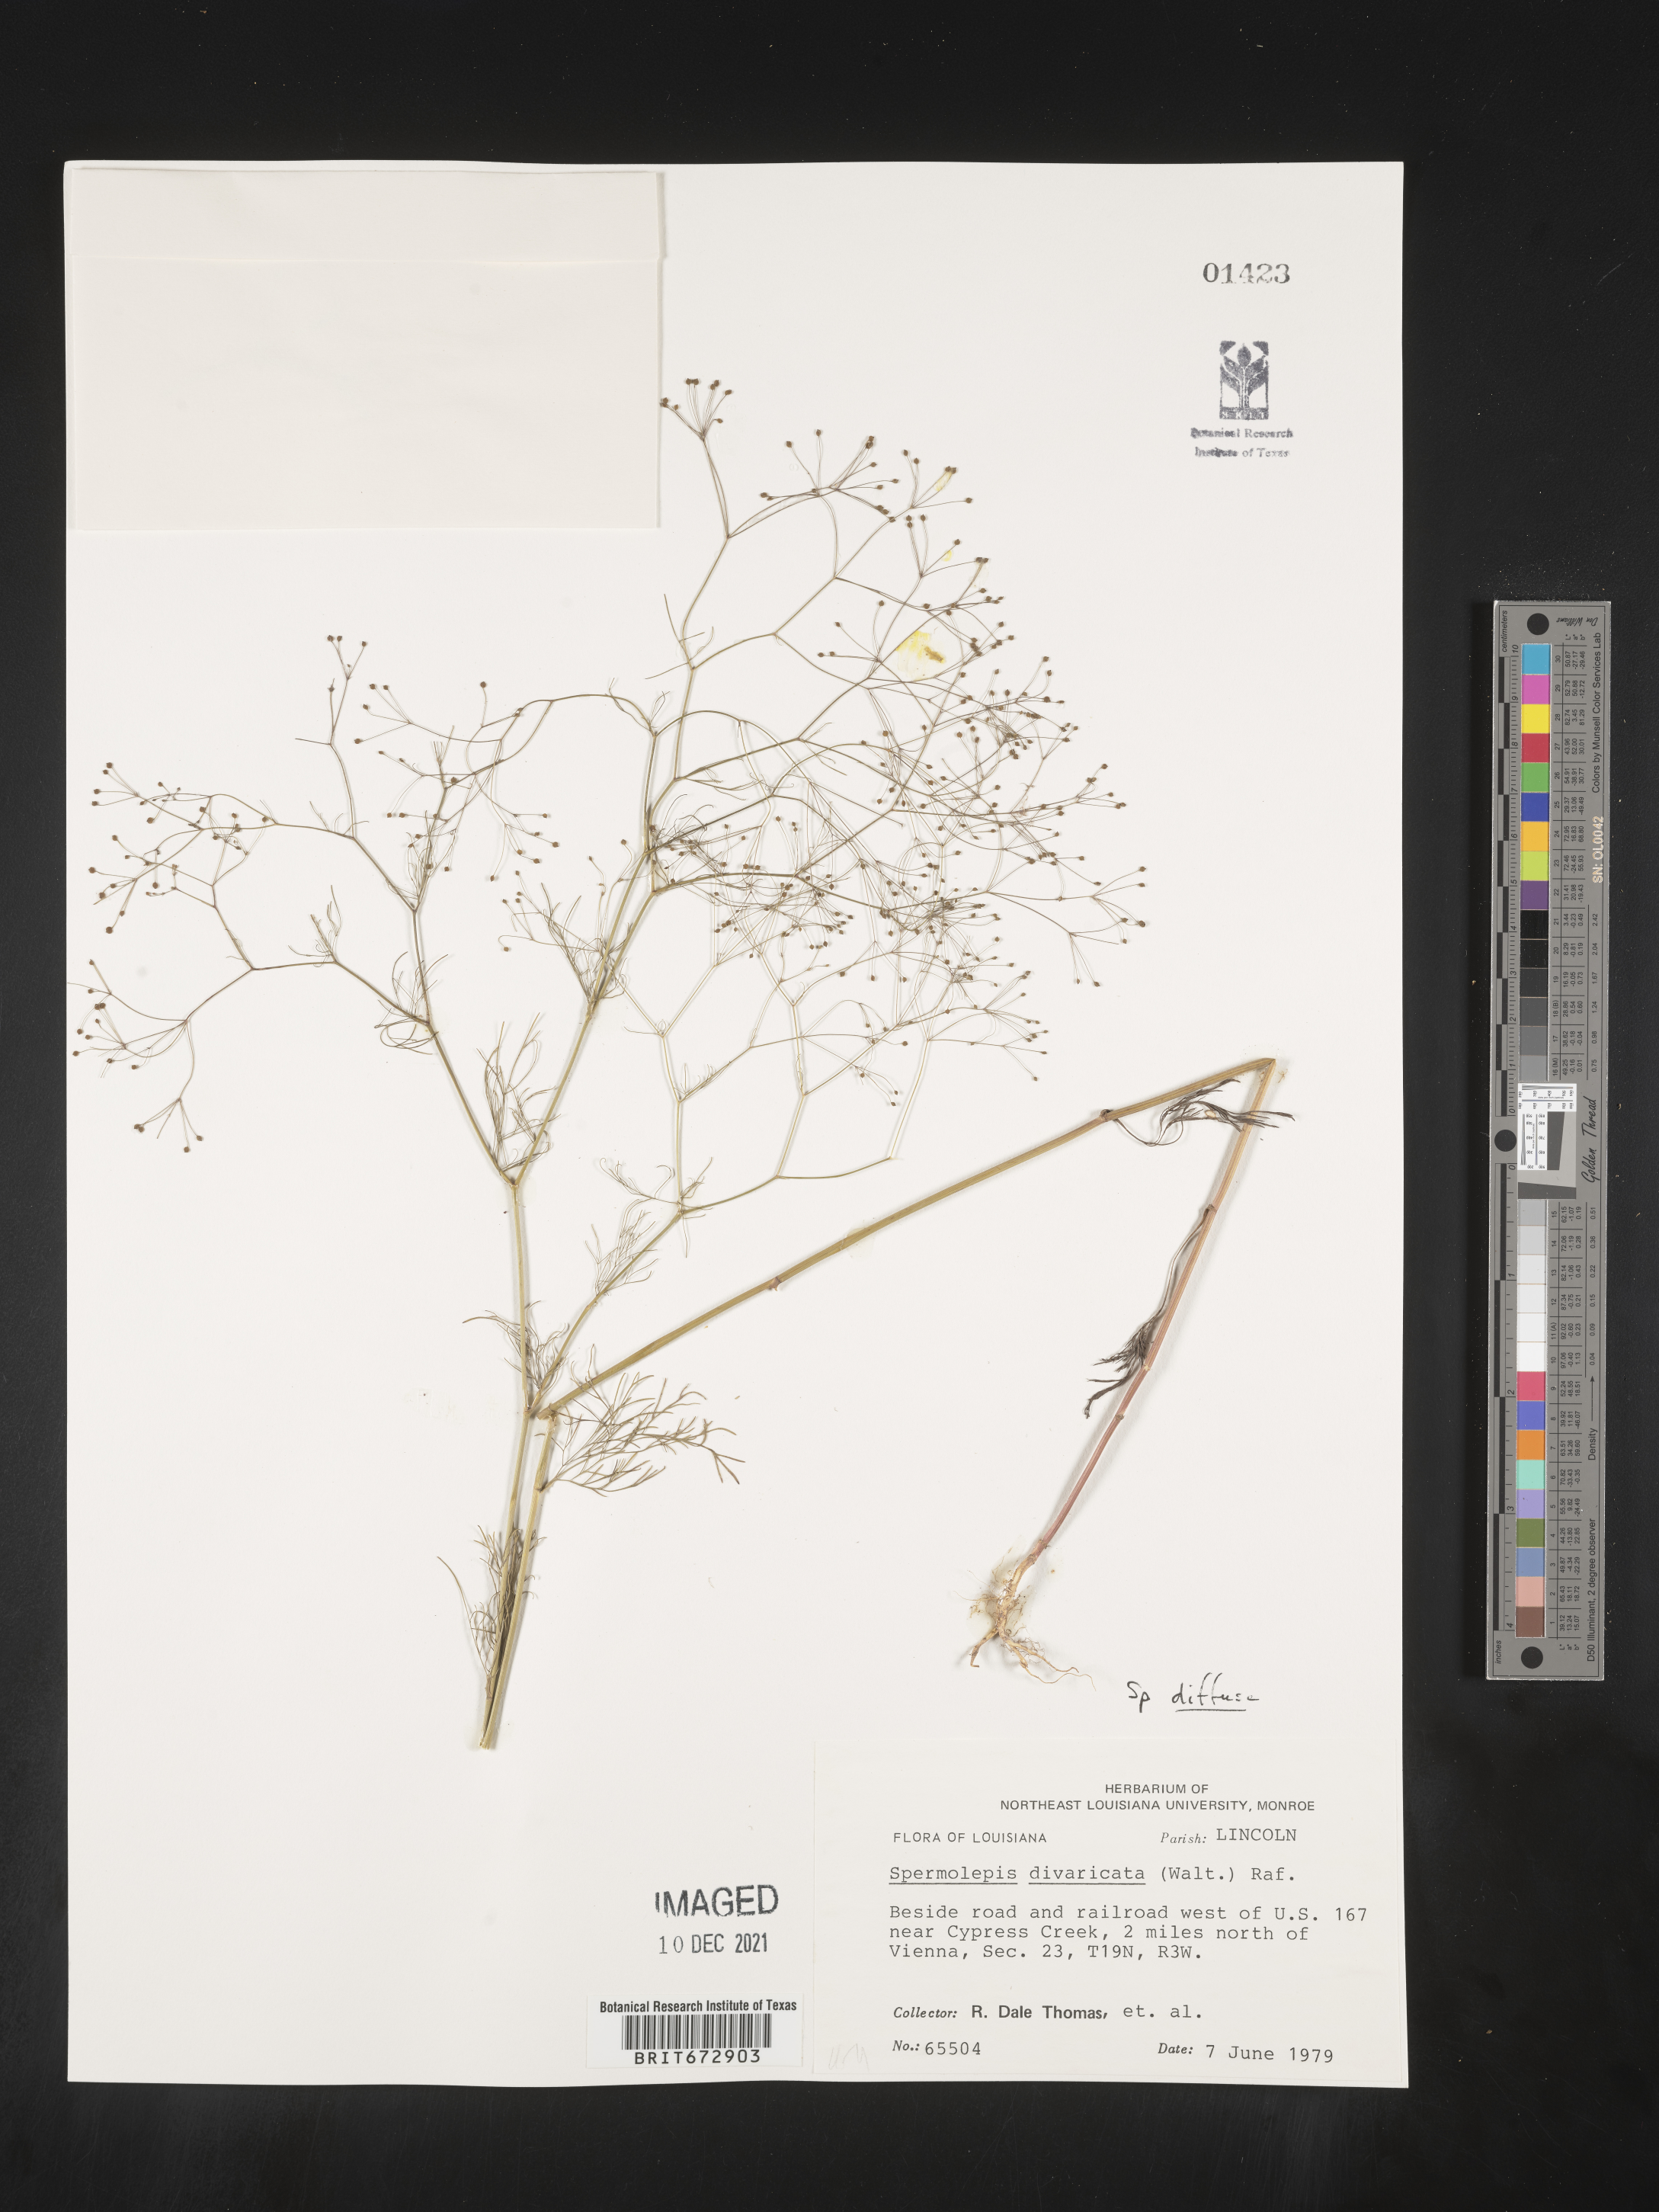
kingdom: Plantae
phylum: Tracheophyta
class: Magnoliopsida
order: Apiales
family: Apiaceae
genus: Spermolepis
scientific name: Spermolepis diffusa
